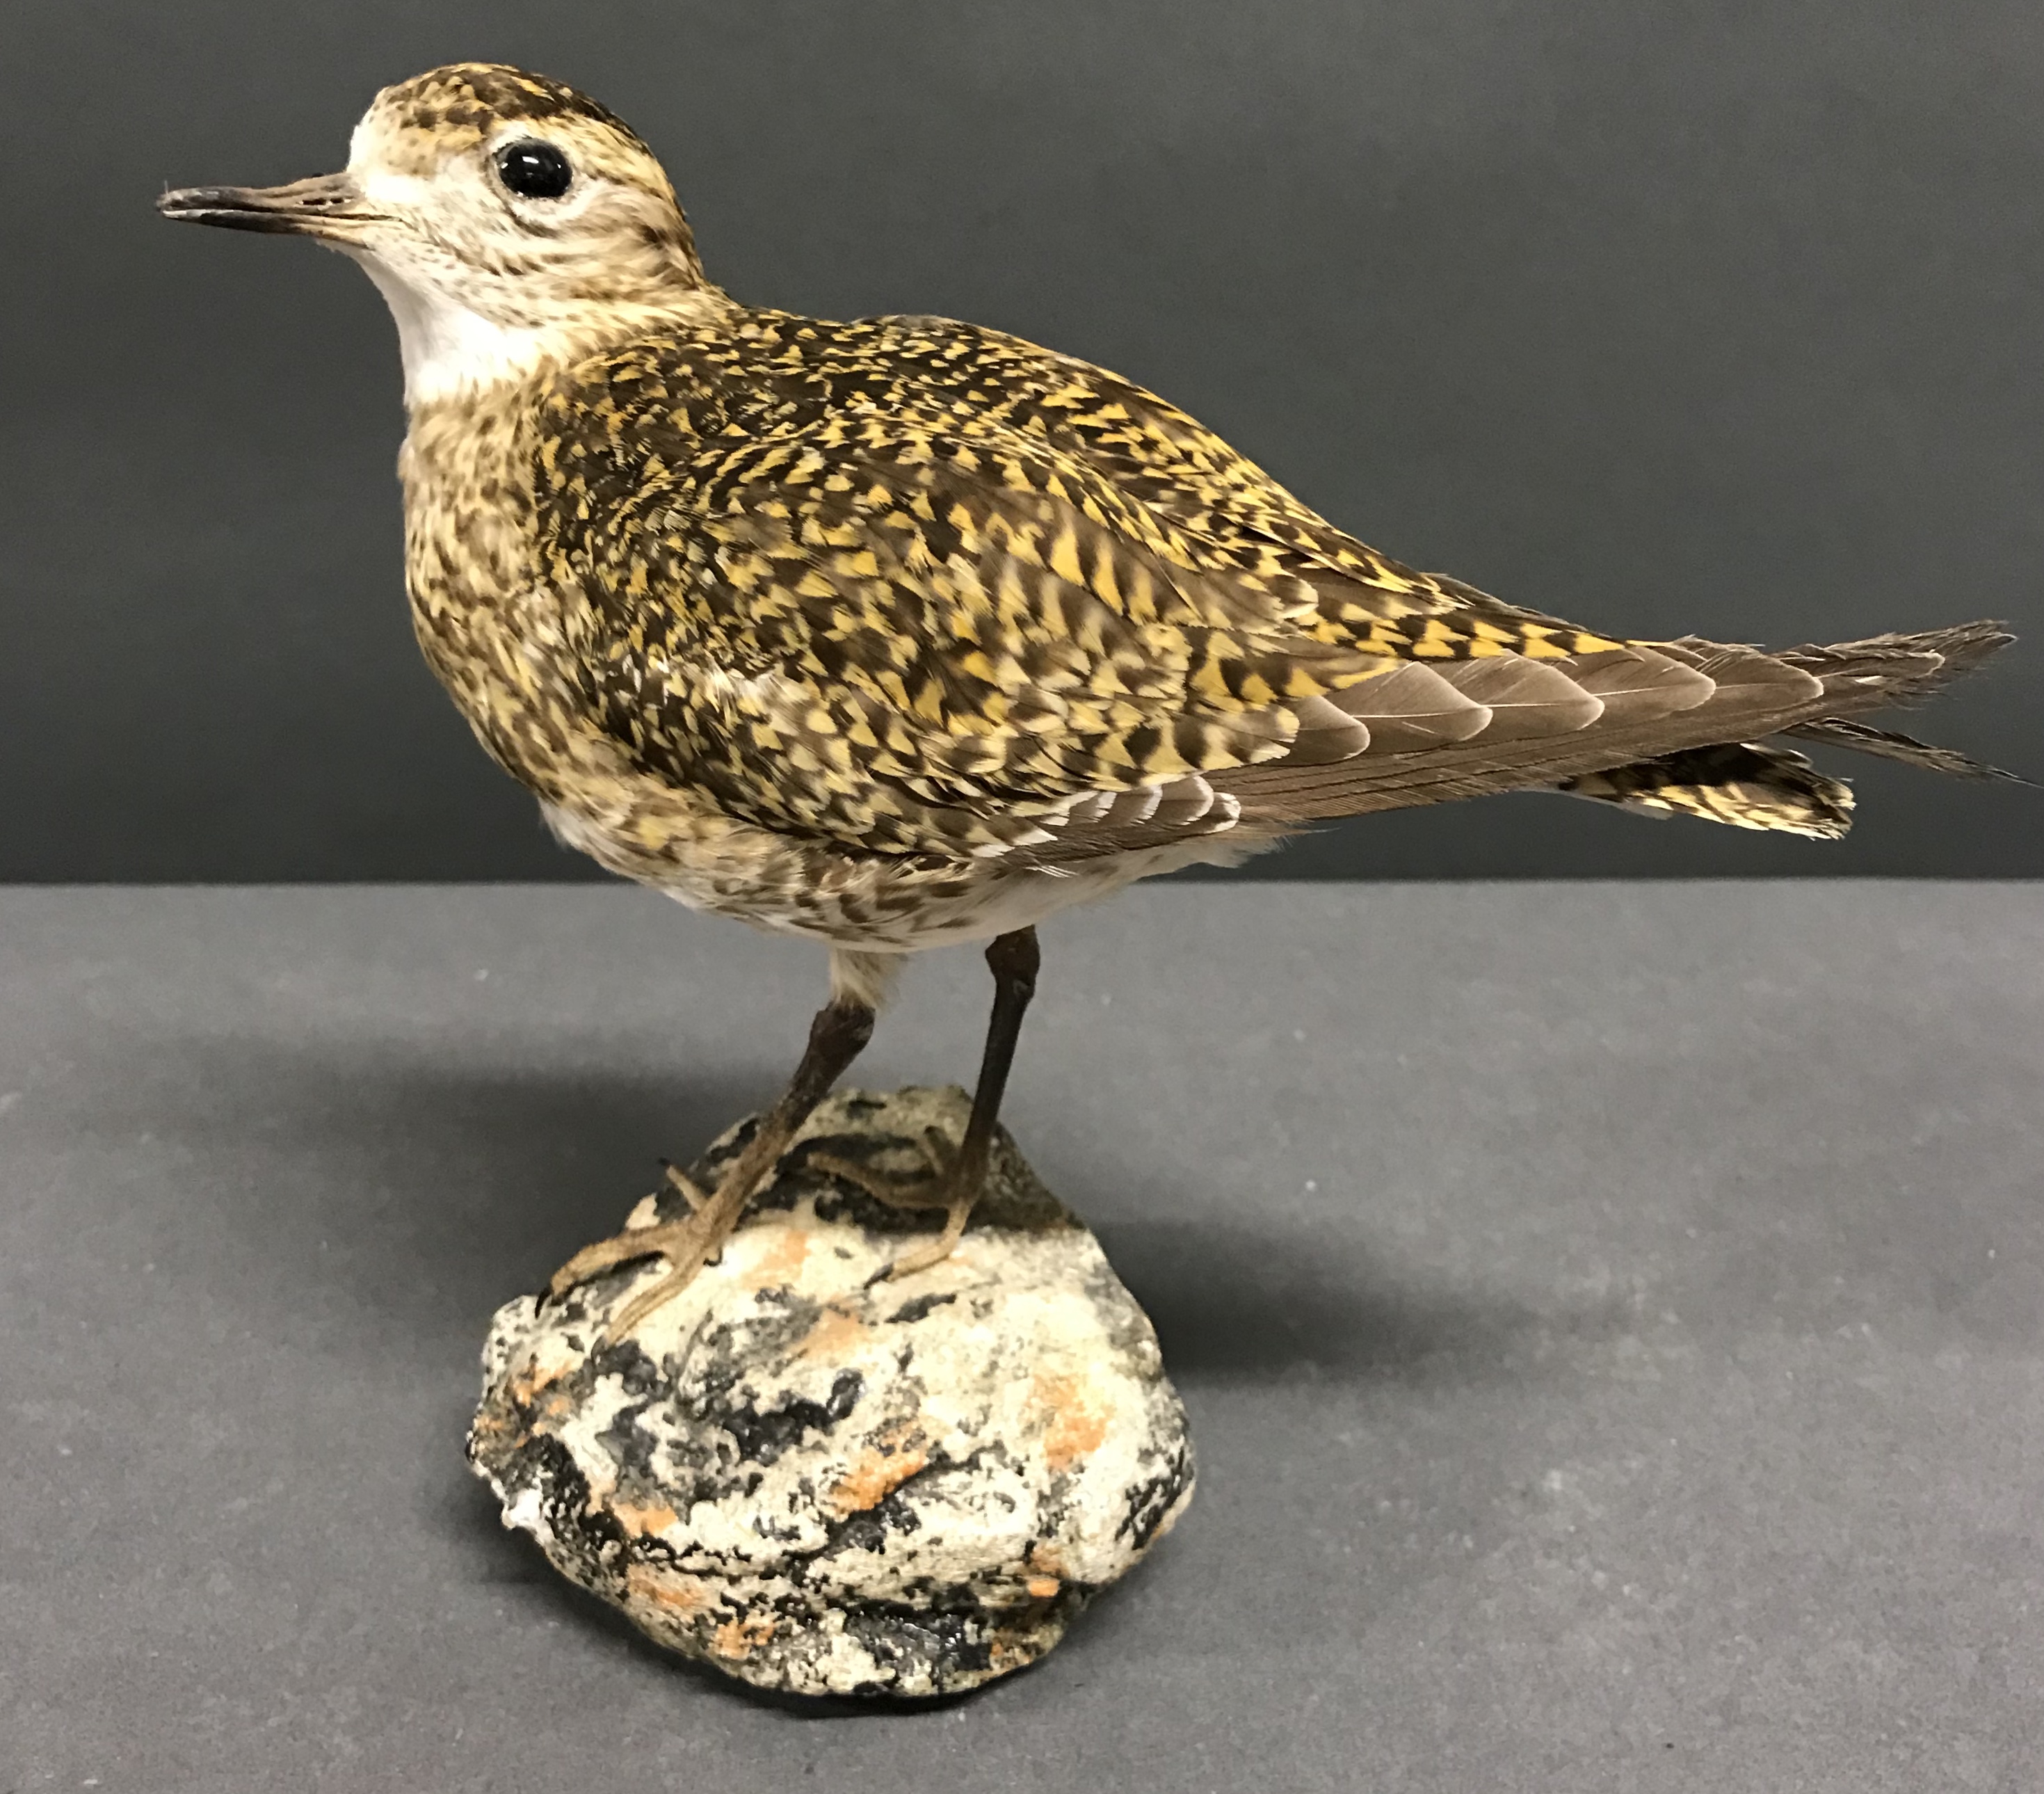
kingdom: Animalia
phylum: Chordata
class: Aves
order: Charadriiformes
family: Charadriidae
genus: Pluvialis
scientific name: Pluvialis apricaria
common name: European golden plover
